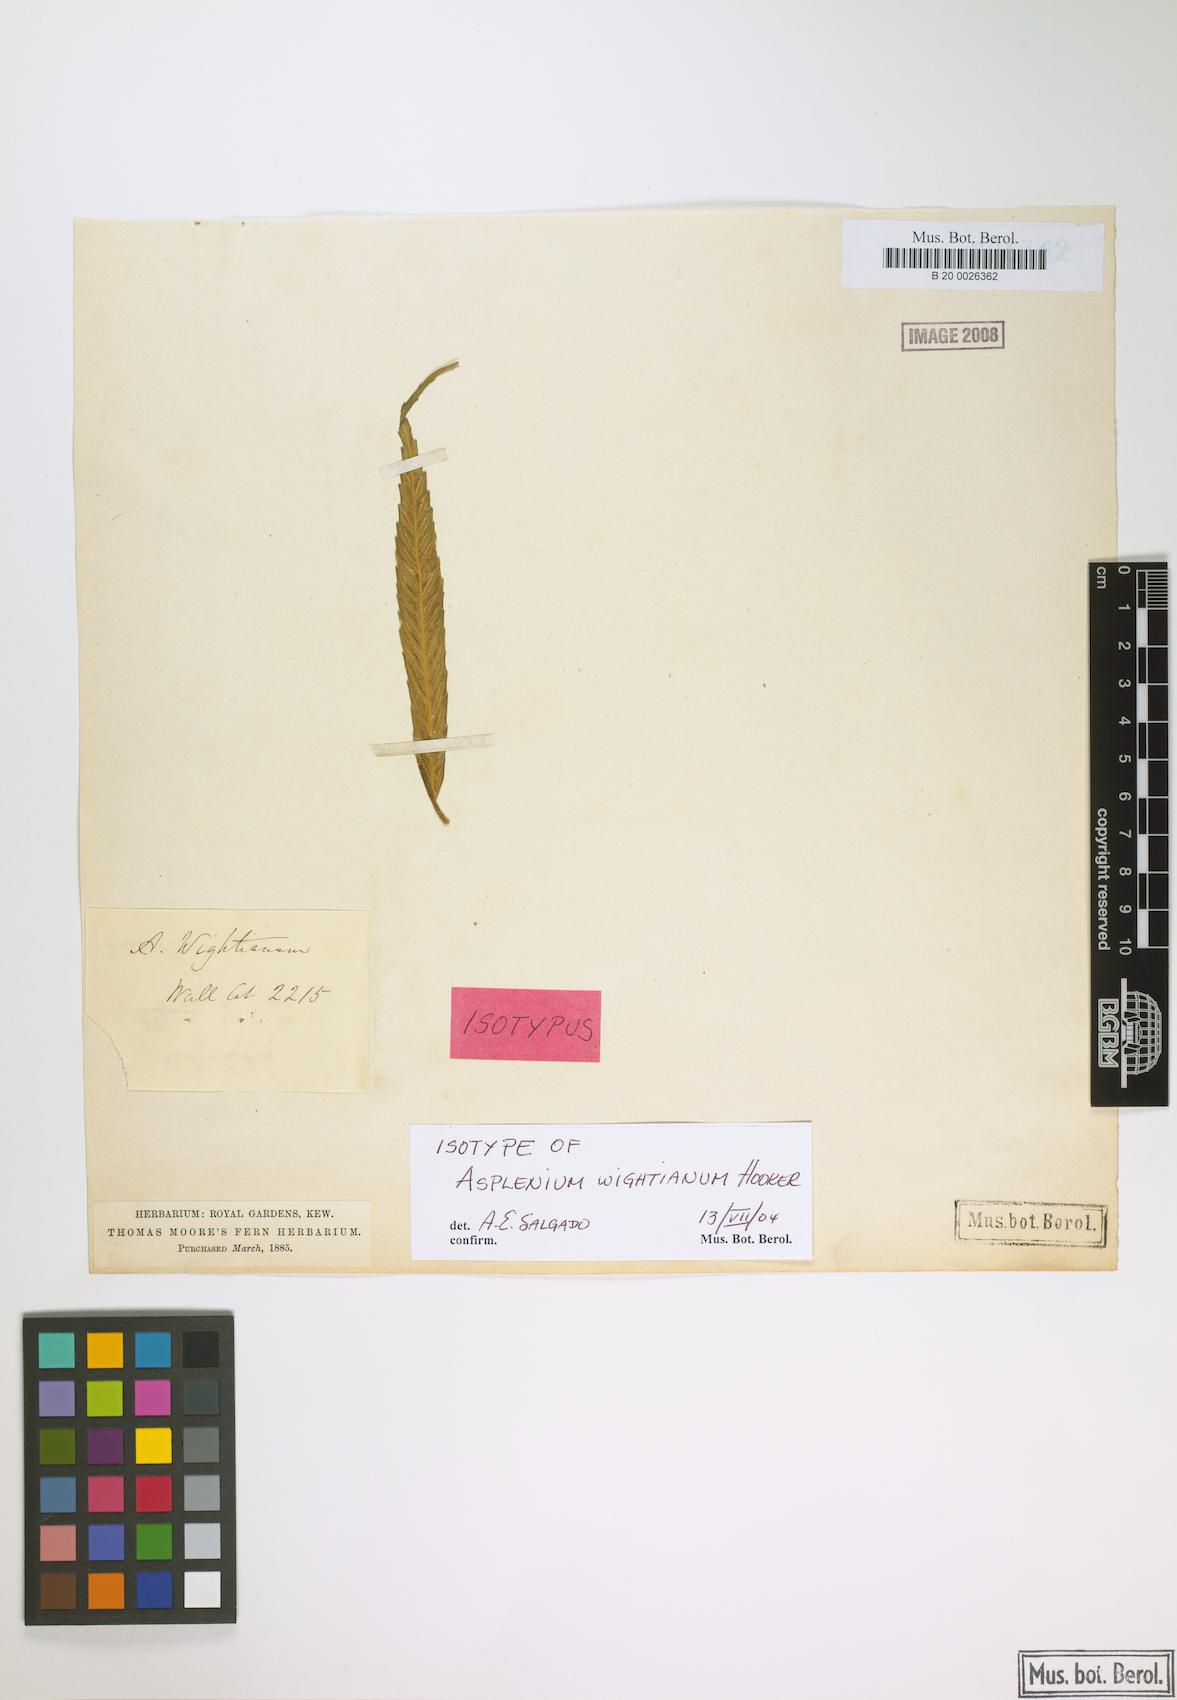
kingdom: Plantae
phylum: Tracheophyta
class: Polypodiopsida
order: Polypodiales
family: Aspleniaceae
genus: Asplenium
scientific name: Asplenium serricula
